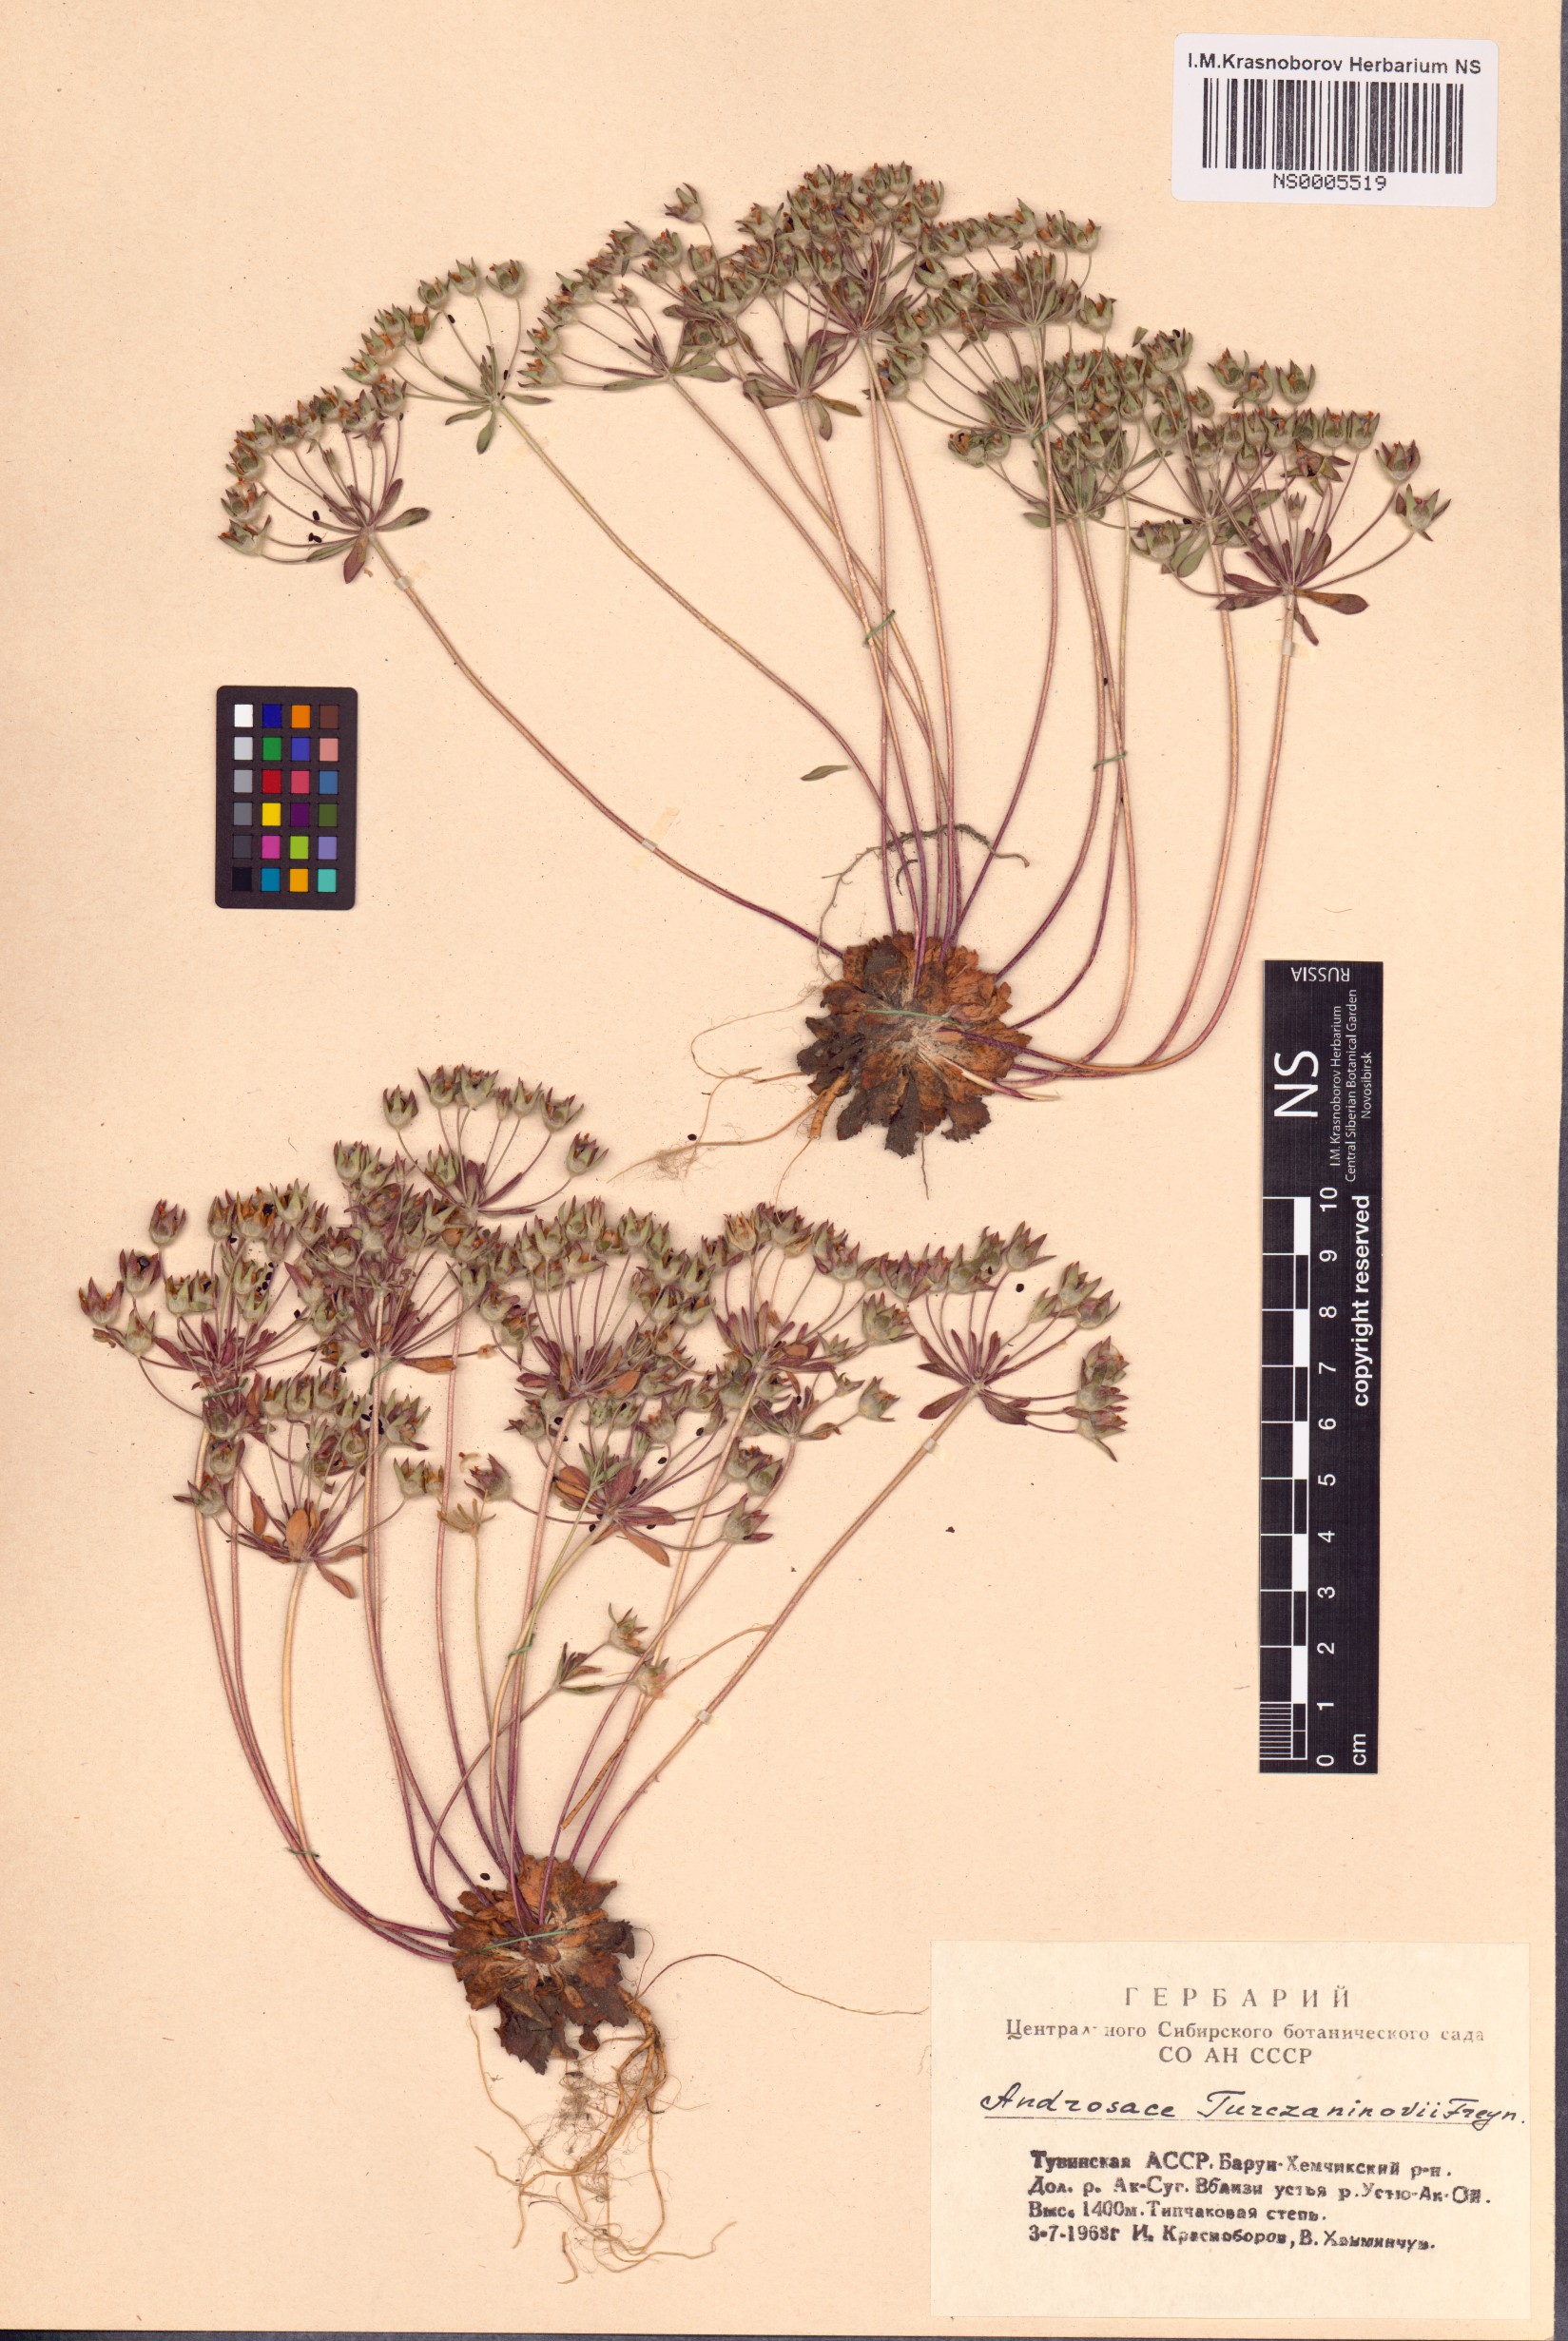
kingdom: Plantae
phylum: Tracheophyta
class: Magnoliopsida
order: Ericales
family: Primulaceae
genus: Androsace
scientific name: Androsace maxima
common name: Annual androsace
